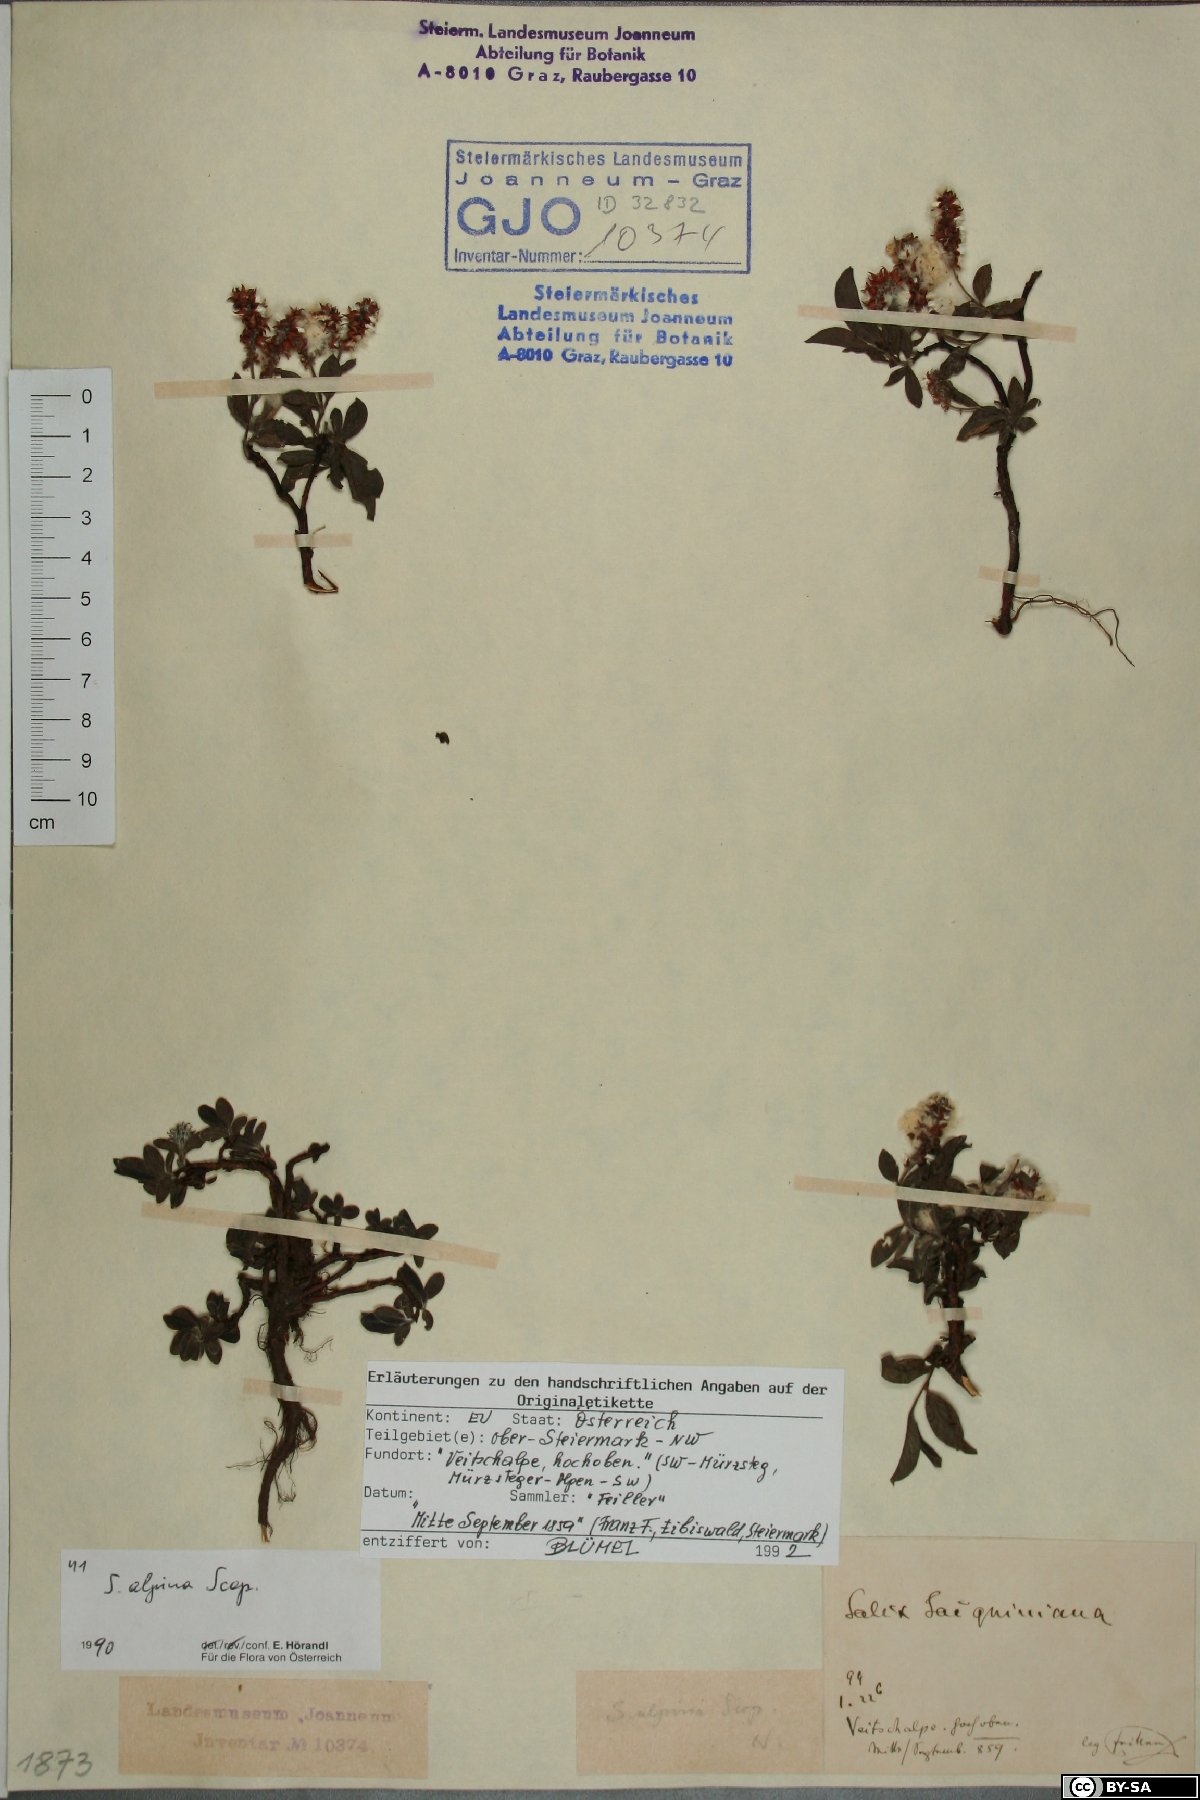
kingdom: Plantae
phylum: Tracheophyta
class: Magnoliopsida
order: Malpighiales
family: Salicaceae
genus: Salix
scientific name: Salix alpina
